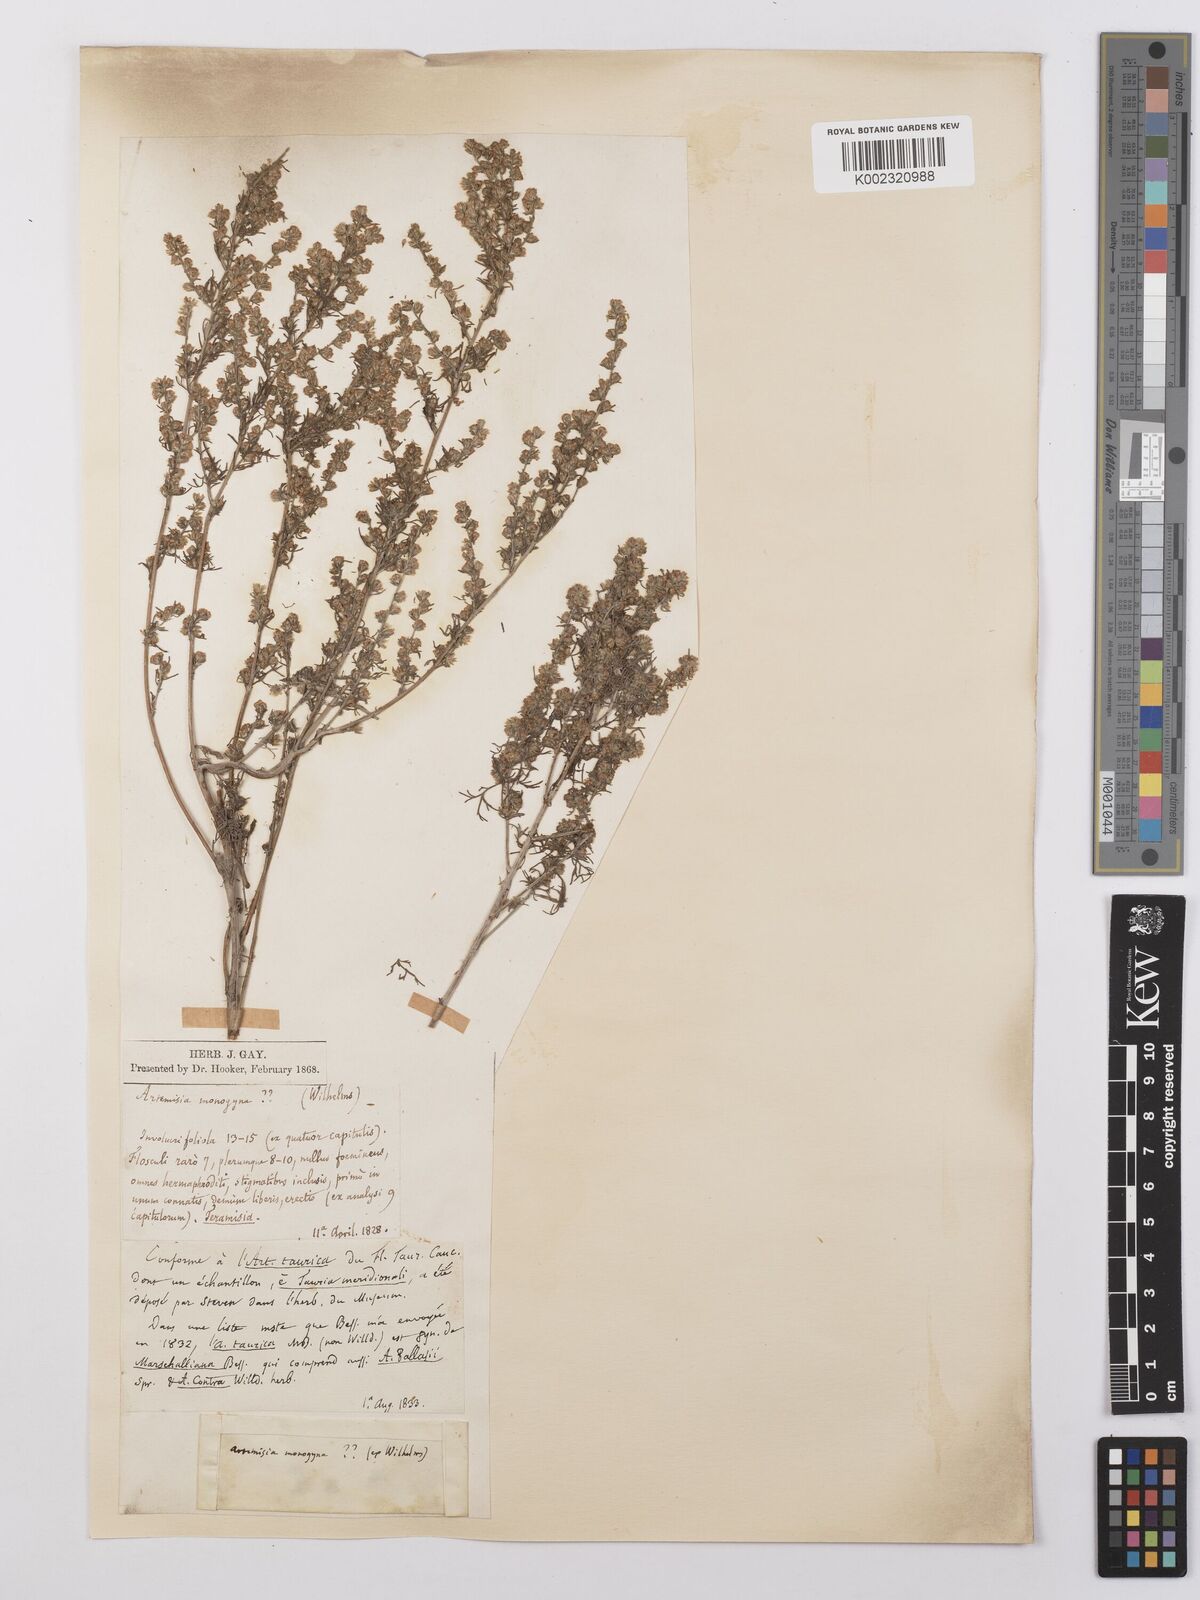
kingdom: Plantae
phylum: Tracheophyta
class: Magnoliopsida
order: Asterales
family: Asteraceae
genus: Artemisia
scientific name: Artemisia santonicum
